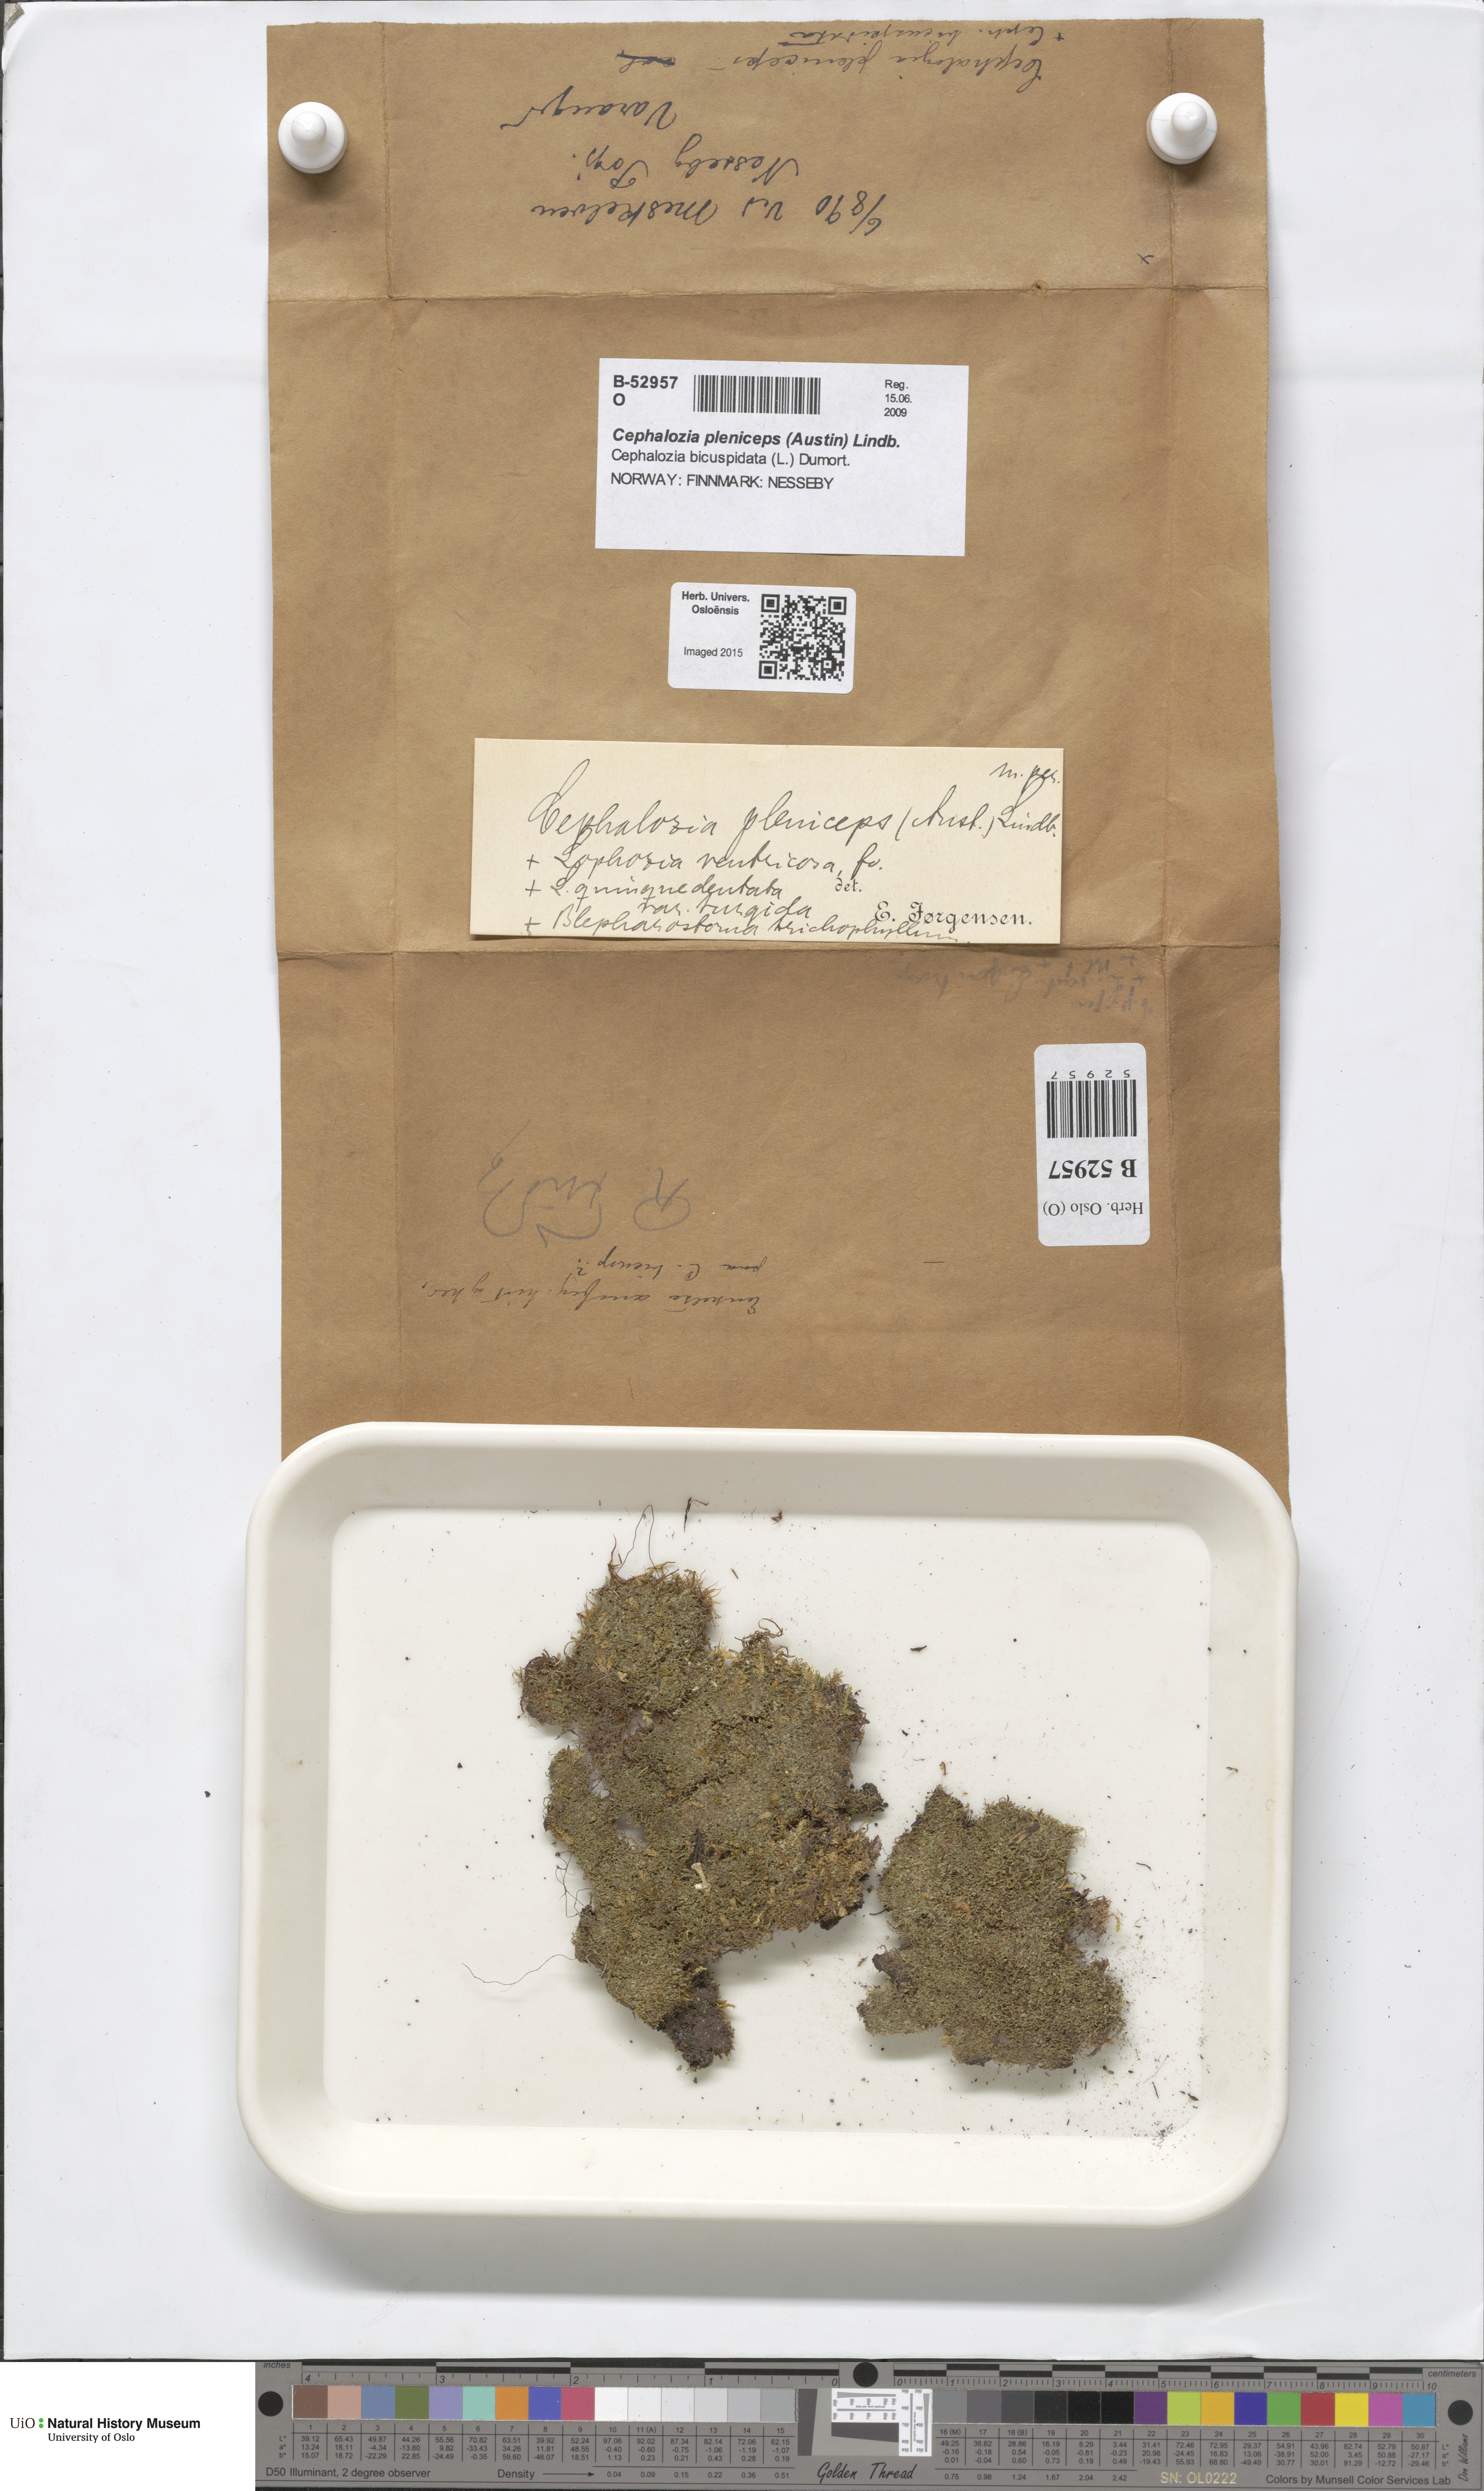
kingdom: Plantae
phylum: Marchantiophyta
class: Jungermanniopsida
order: Jungermanniales
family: Cephaloziaceae
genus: Fuscocephaloziopsis
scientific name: Fuscocephaloziopsis pleniceps
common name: Blunt pincerwort
